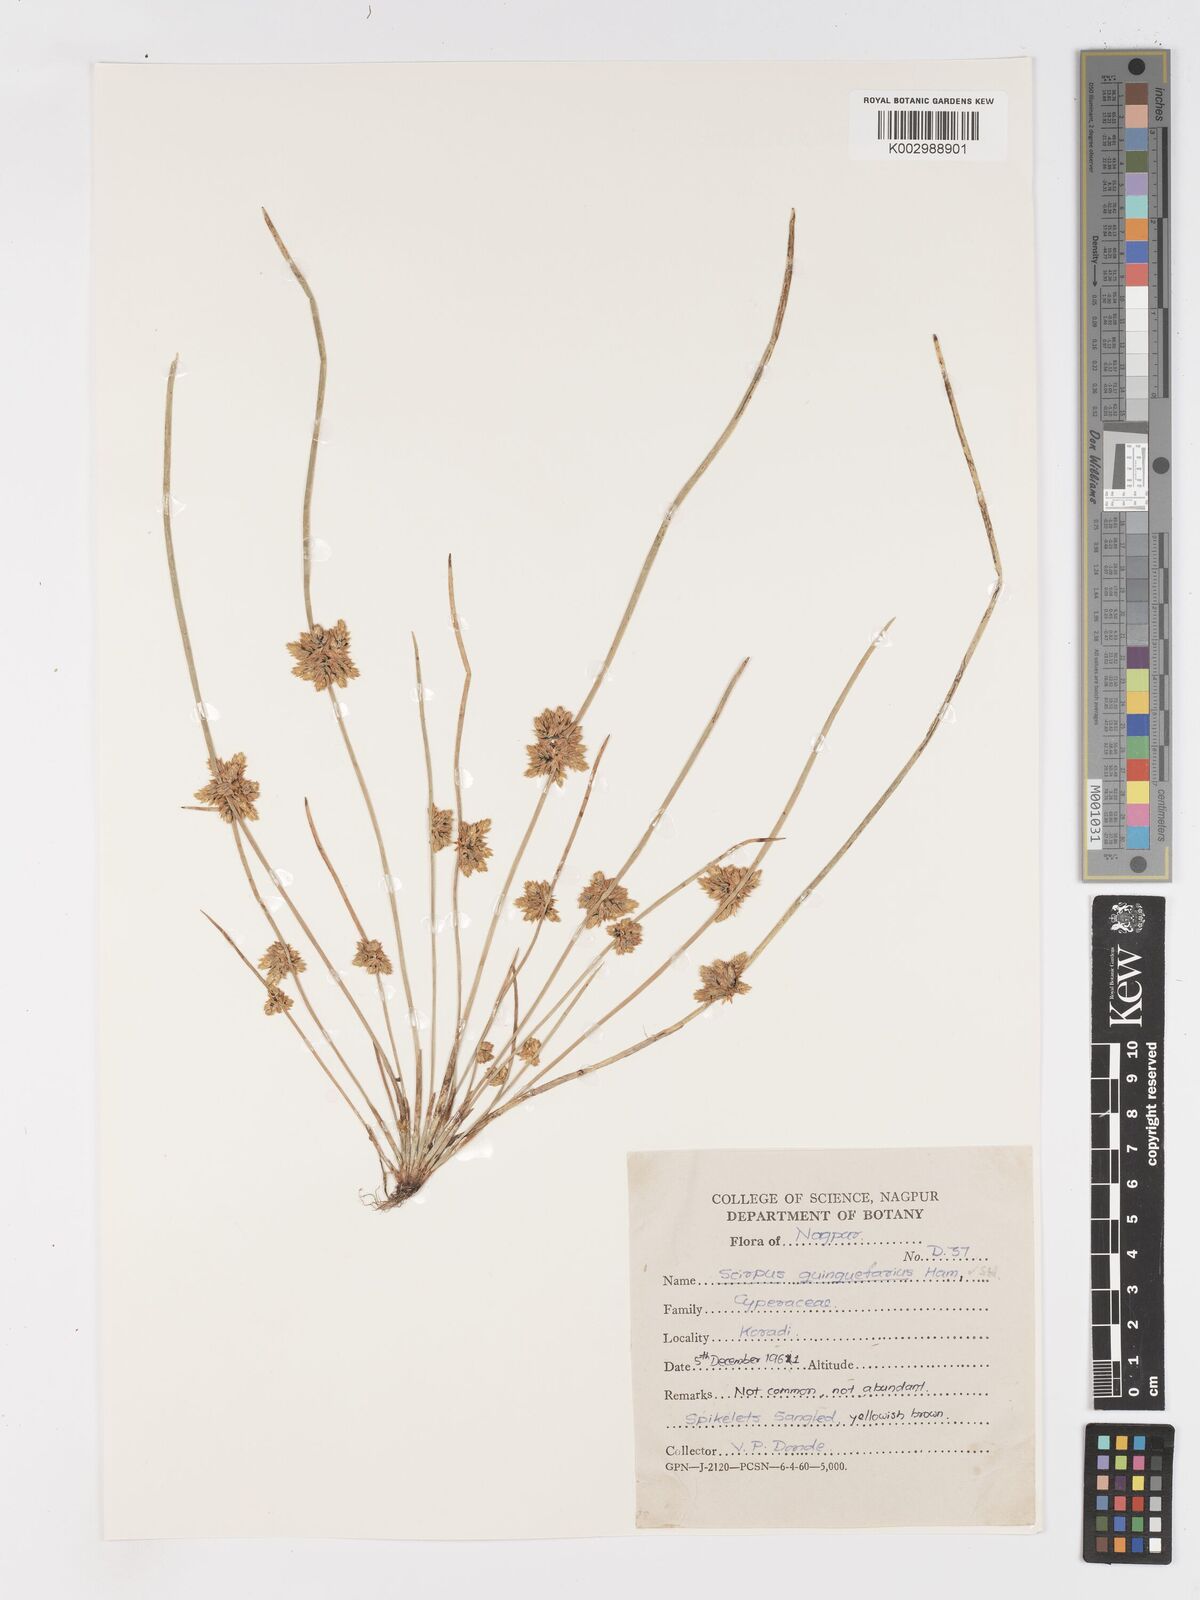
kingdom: Plantae
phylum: Tracheophyta
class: Liliopsida
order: Poales
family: Cyperaceae
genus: Schoenoplectiella
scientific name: Schoenoplectiella roylei
